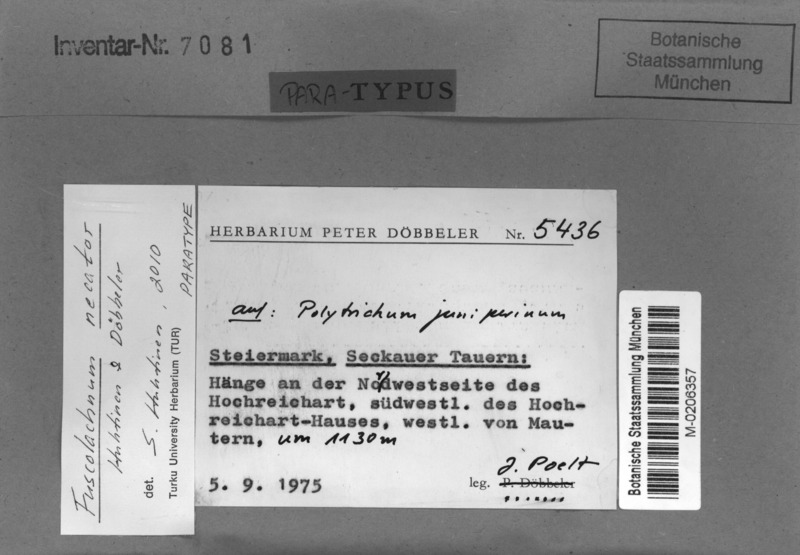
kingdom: Fungi
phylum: Ascomycota
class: Leotiomycetes
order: Helotiales
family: Hyphodiscaceae
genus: Fuscolachnum
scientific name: Fuscolachnum necator
